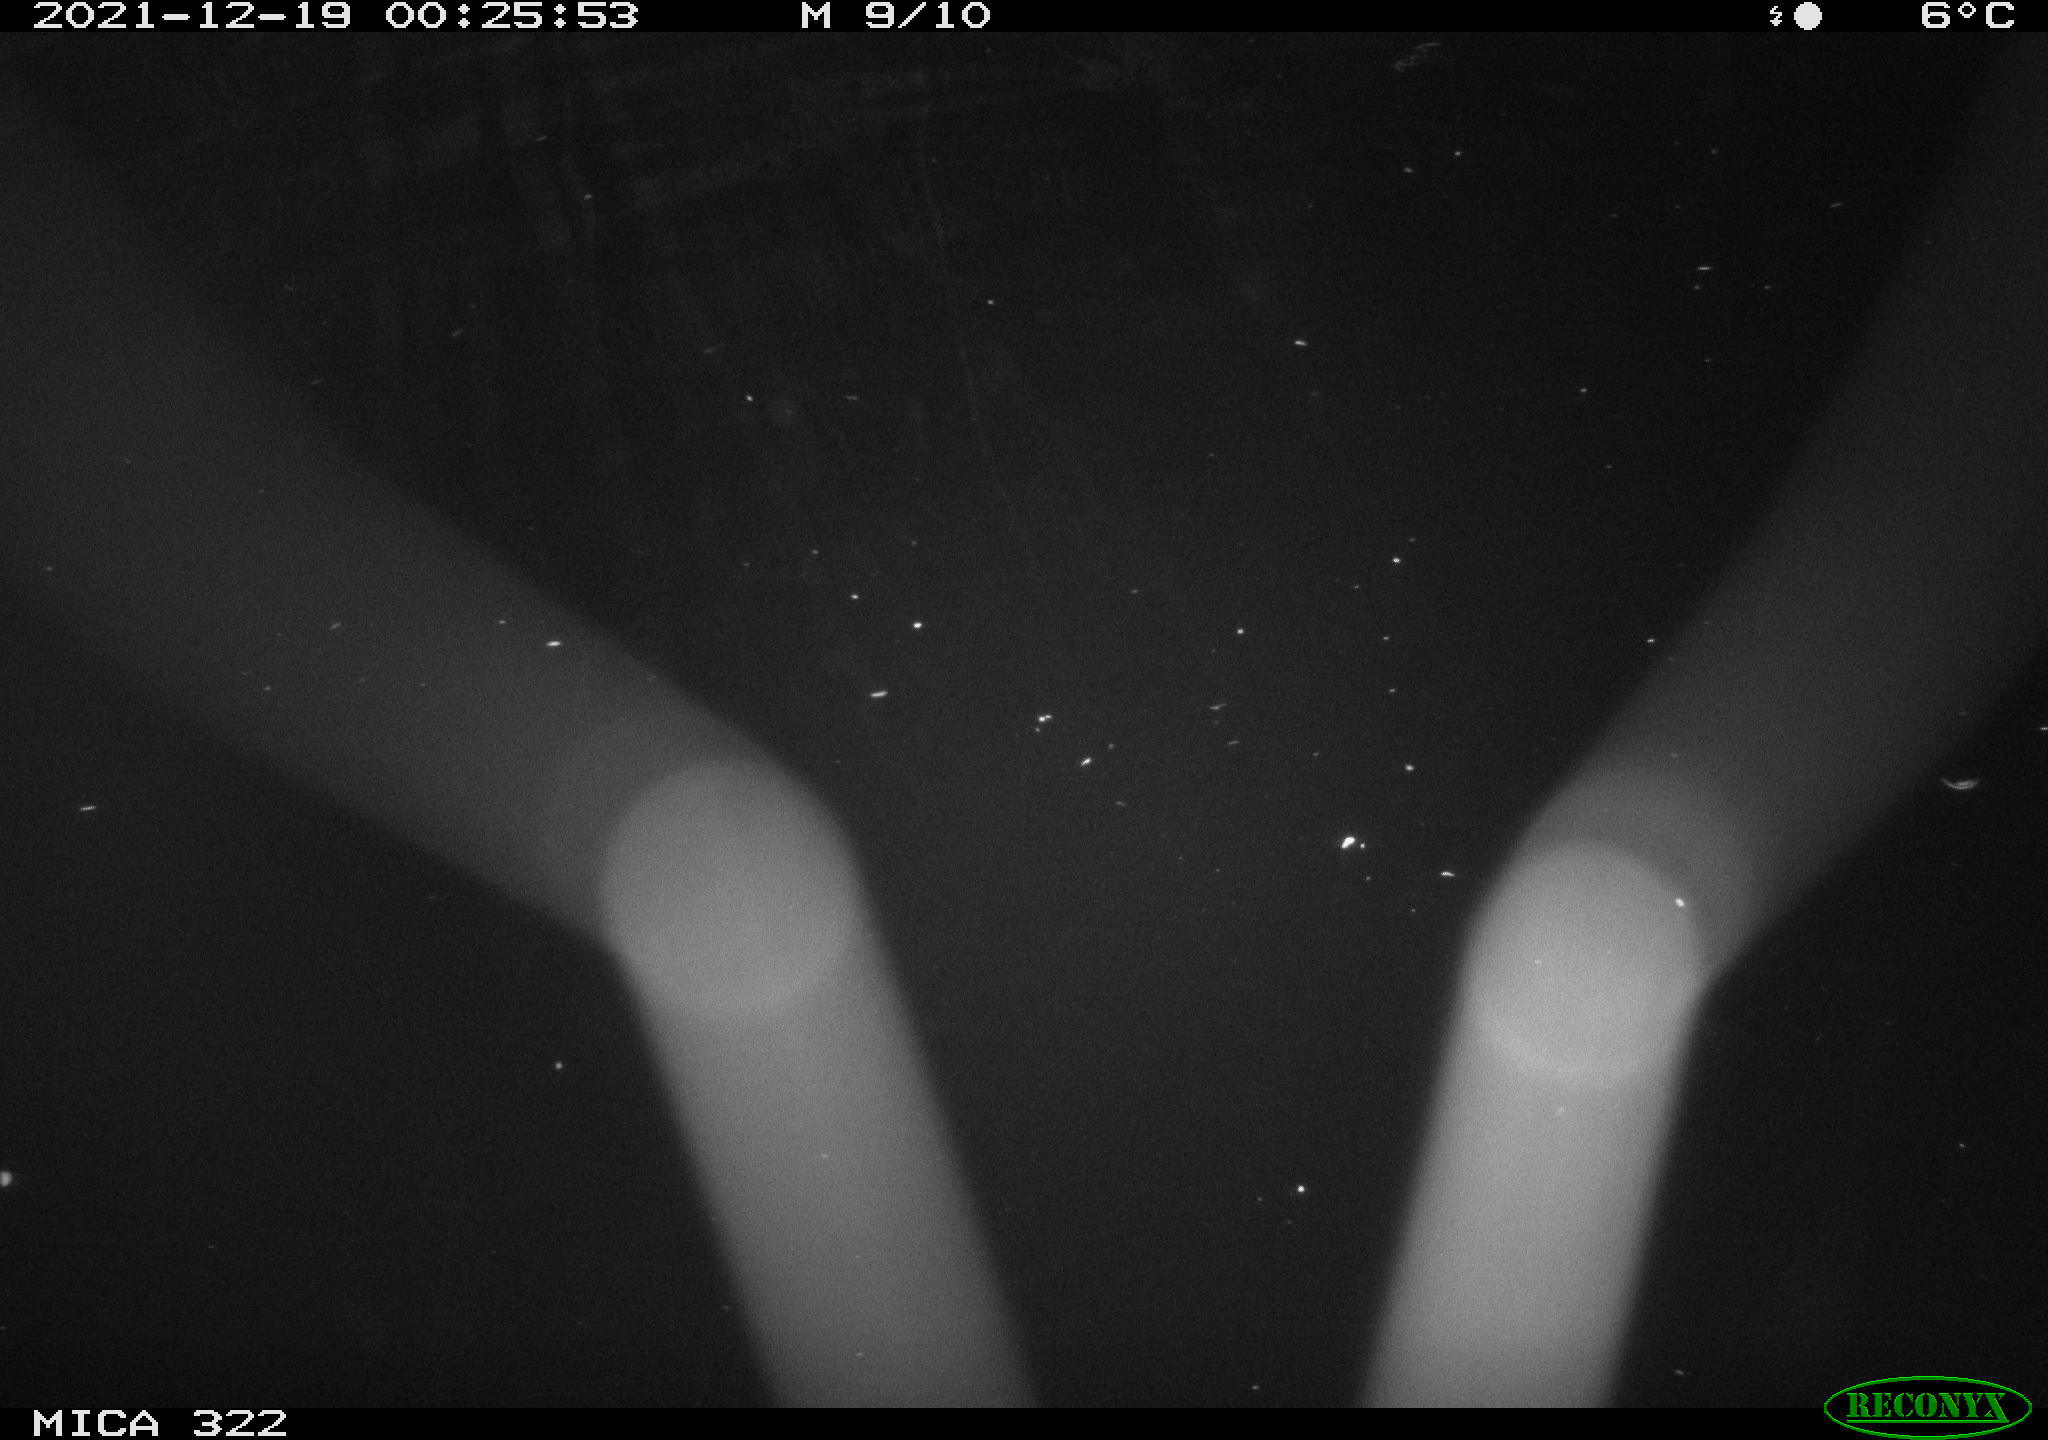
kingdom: Animalia
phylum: Chordata
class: Mammalia
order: Rodentia
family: Muridae
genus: Rattus
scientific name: Rattus norvegicus
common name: Brown rat
